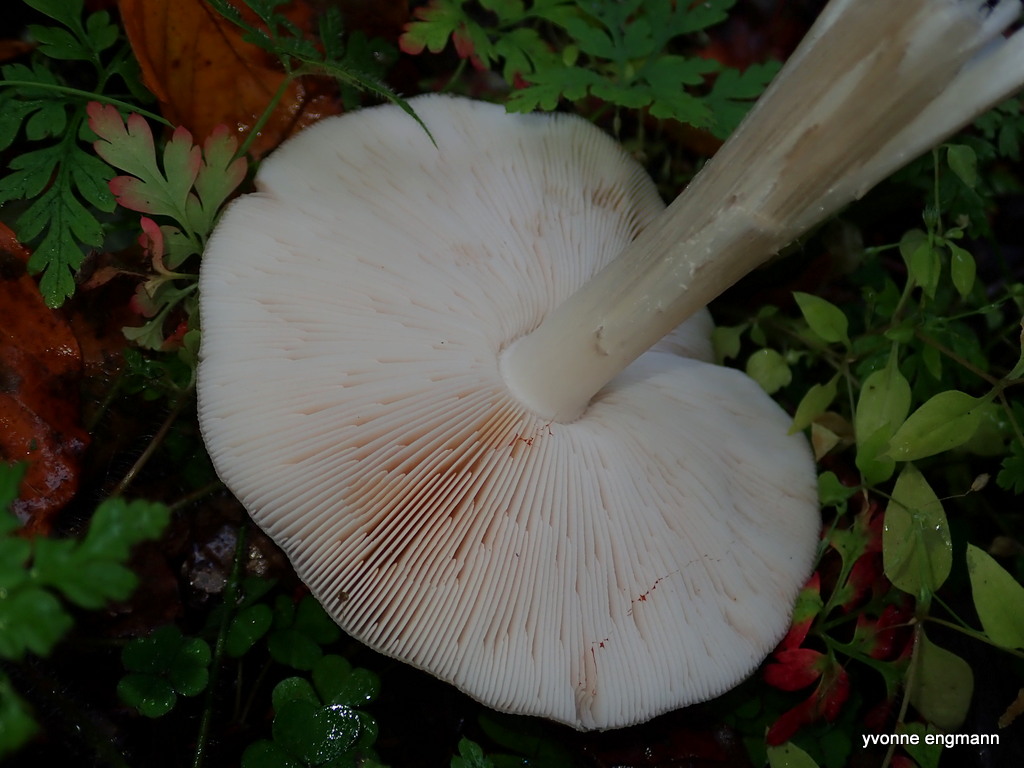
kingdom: Fungi
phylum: Basidiomycota
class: Agaricomycetes
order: Agaricales
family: Pluteaceae
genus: Pluteus
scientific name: Pluteus cervinus
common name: sodfarvet skærmhat
